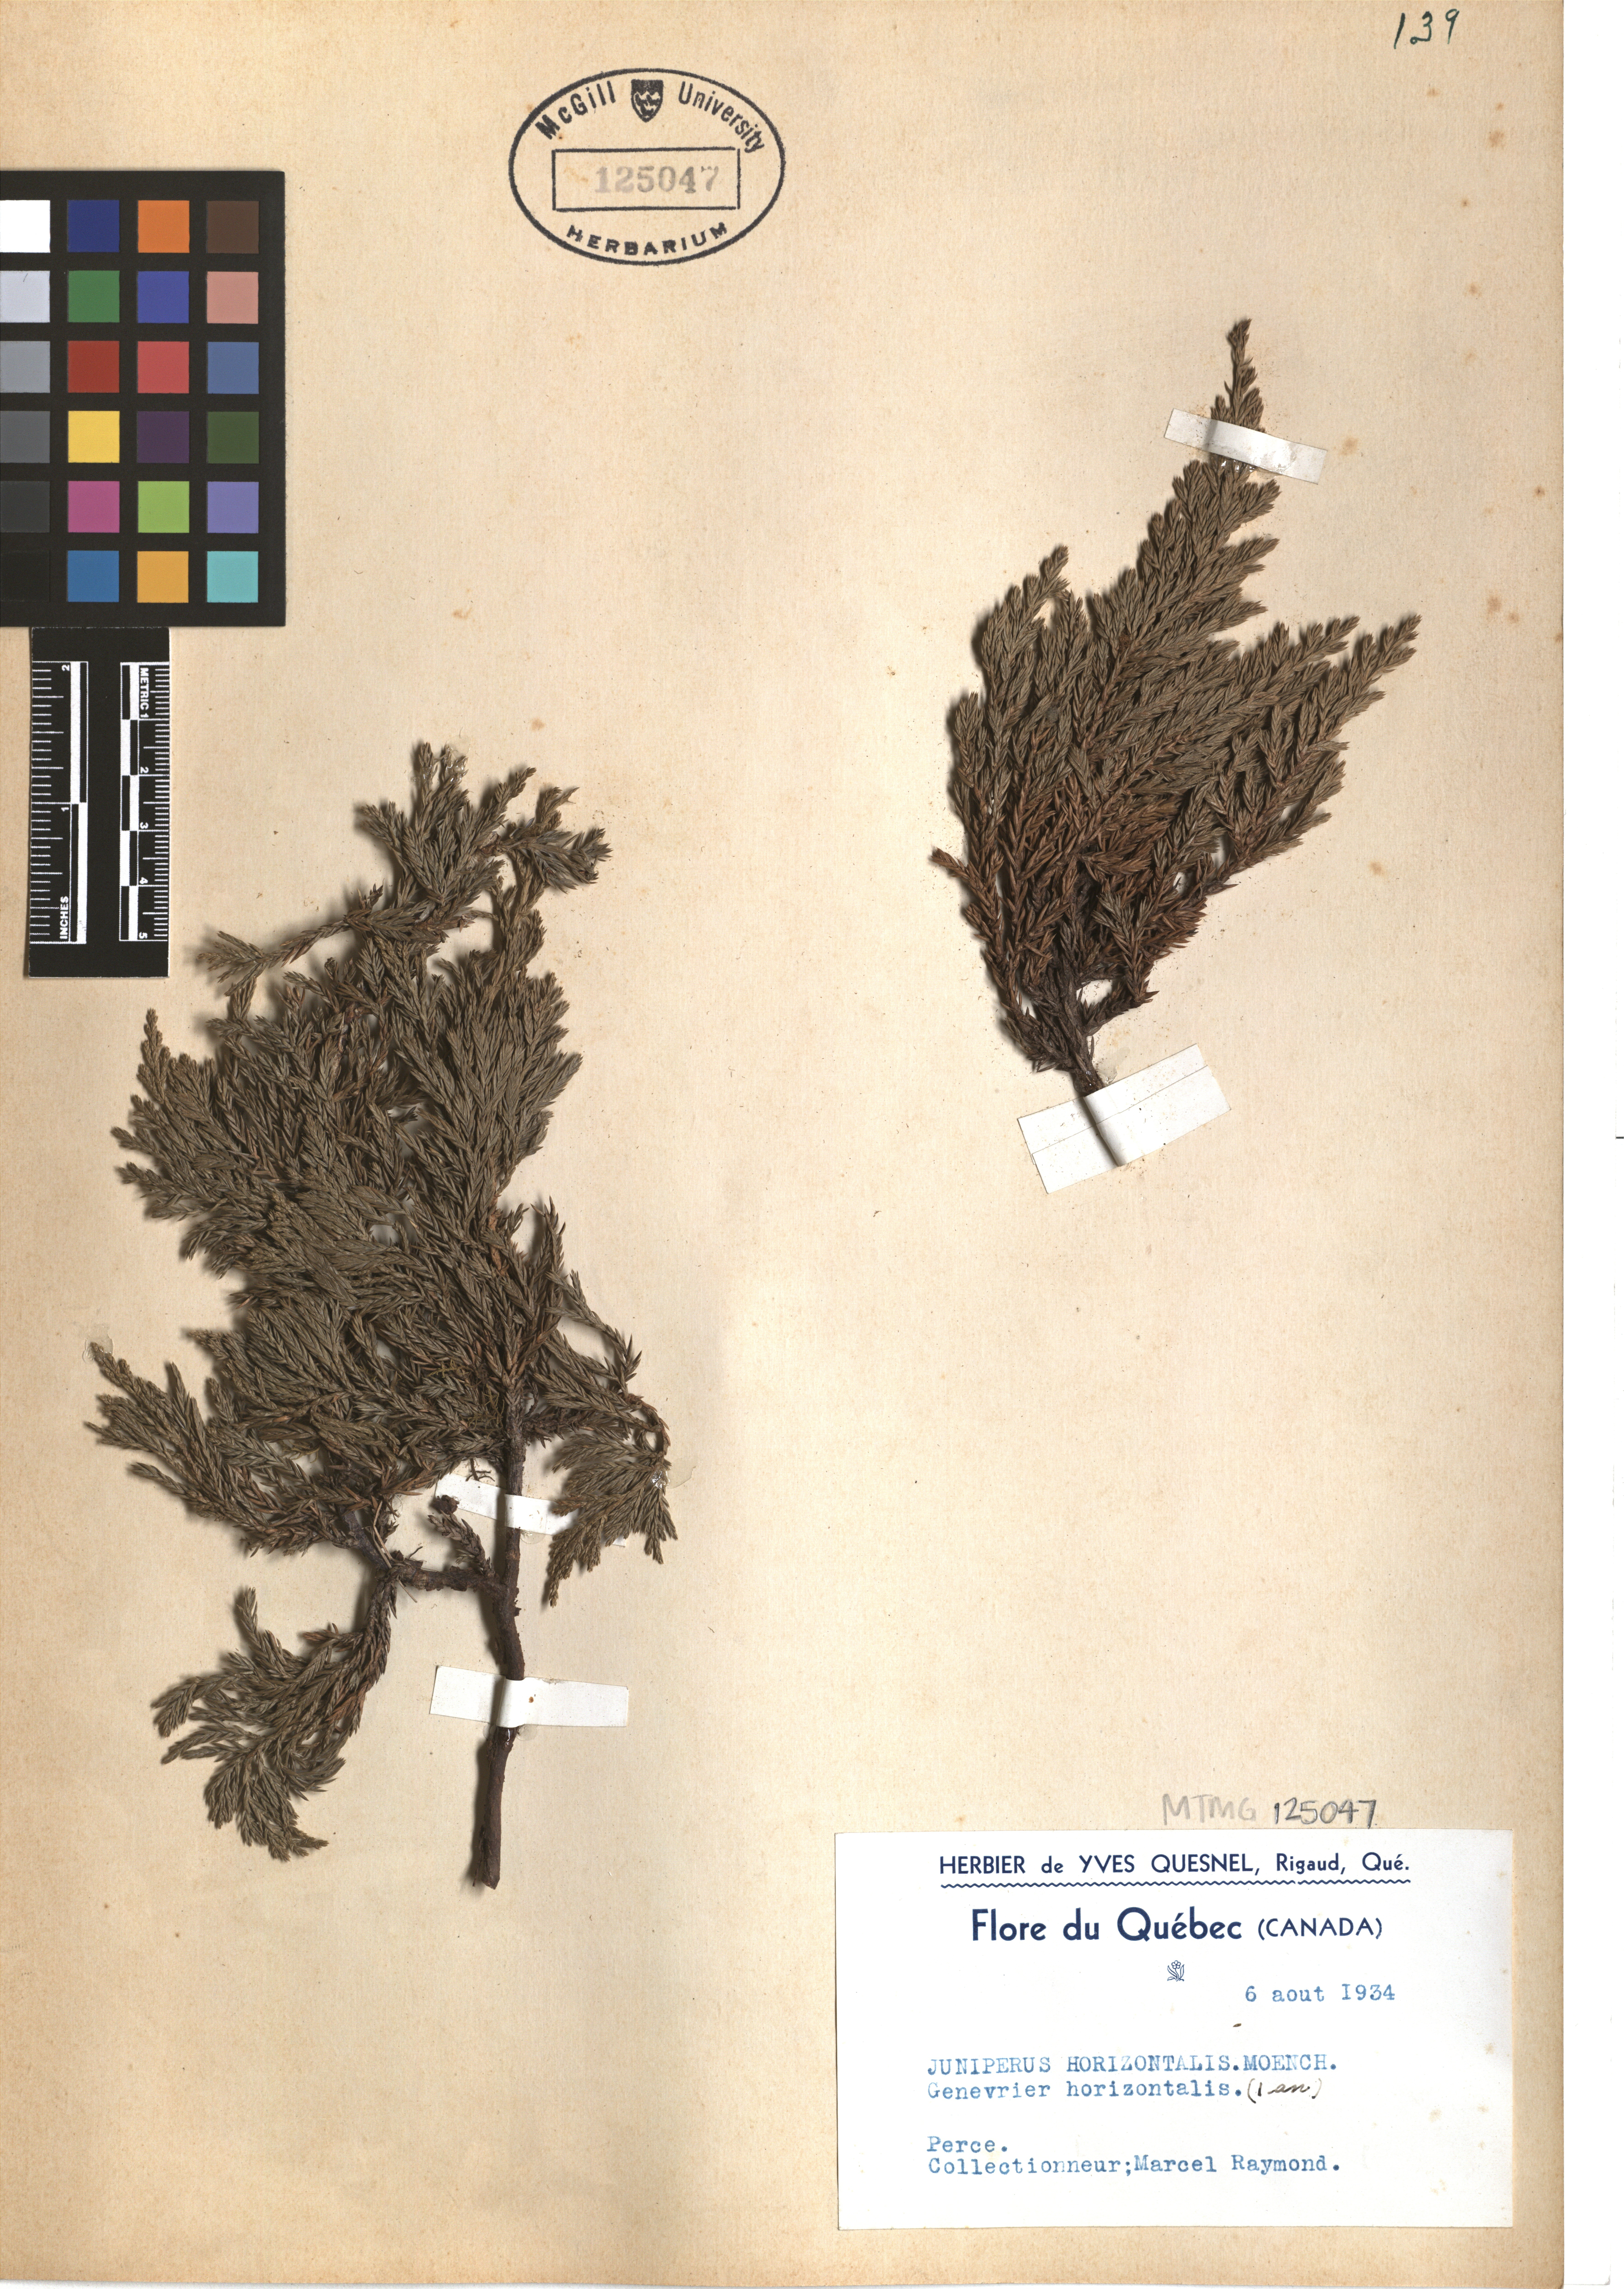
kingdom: Plantae
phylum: Tracheophyta
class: Pinopsida
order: Pinales
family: Cupressaceae
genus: Juniperus
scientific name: Juniperus horizontalis
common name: Creeping juniper
